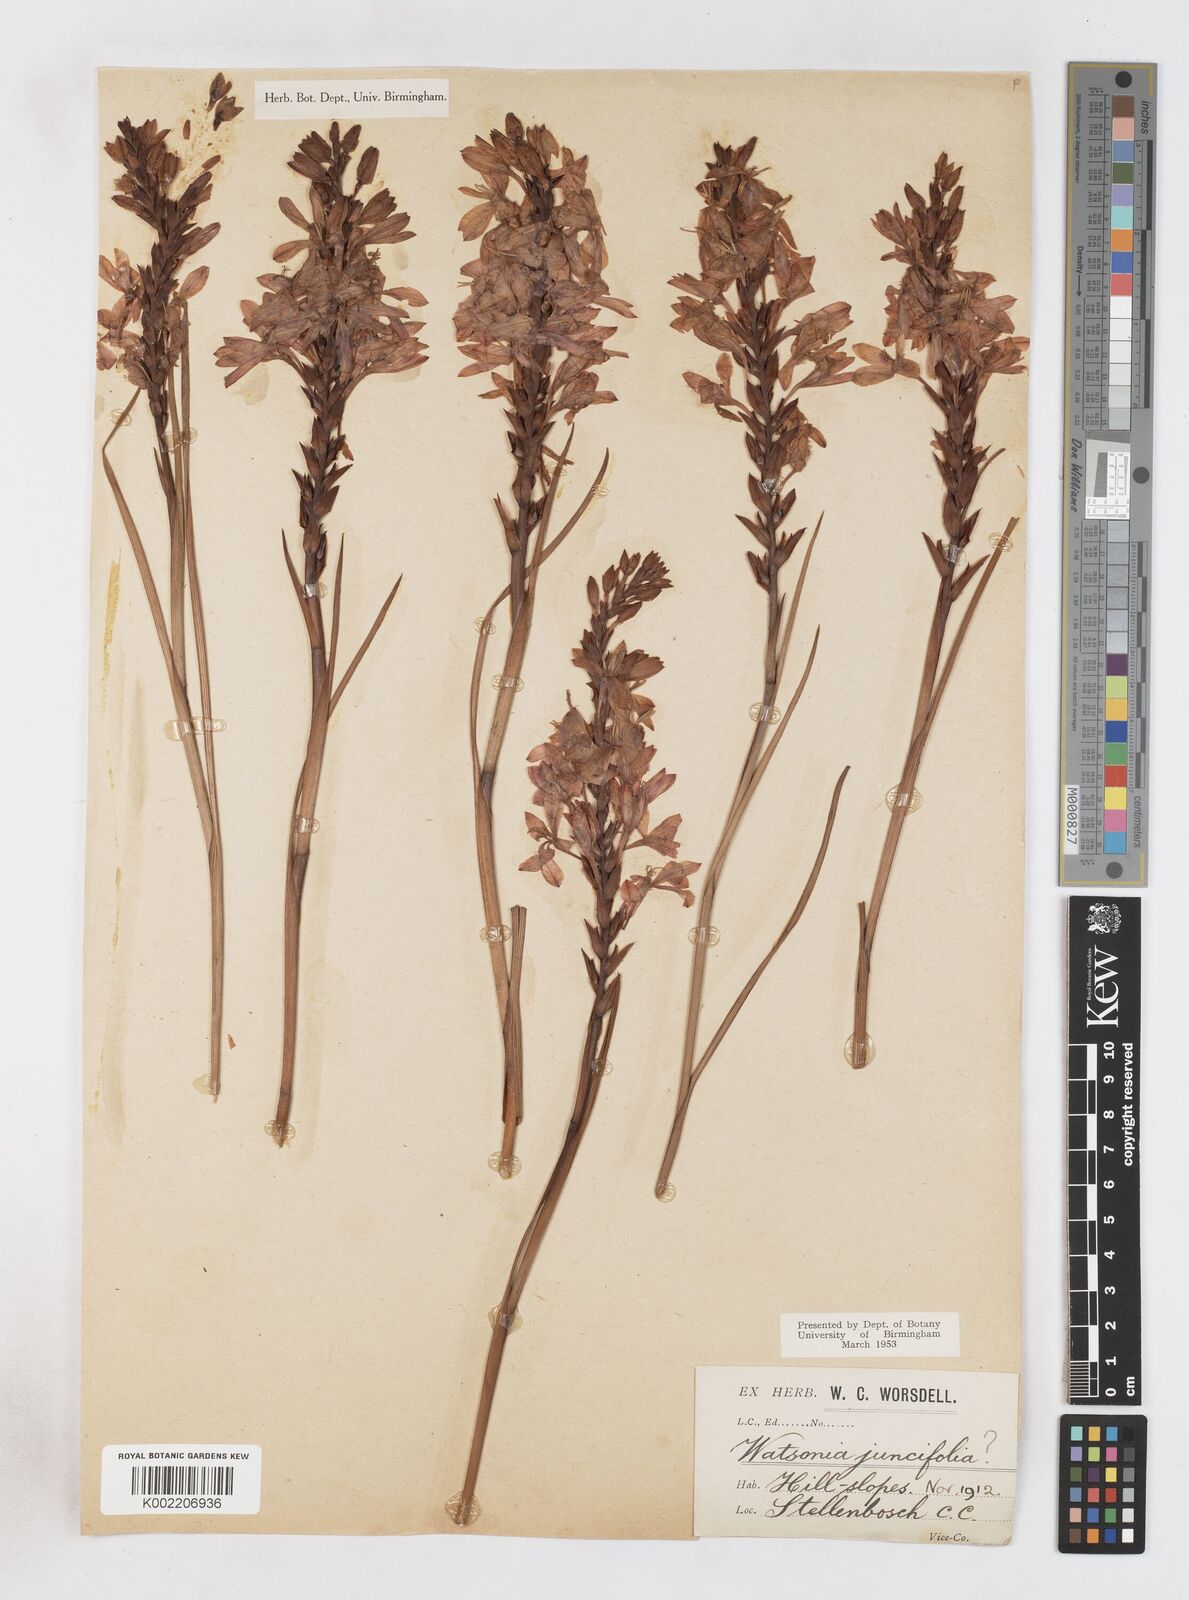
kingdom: Plantae
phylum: Tracheophyta
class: Liliopsida
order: Asparagales
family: Iridaceae
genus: Thereianthus
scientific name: Thereianthus spicatus
